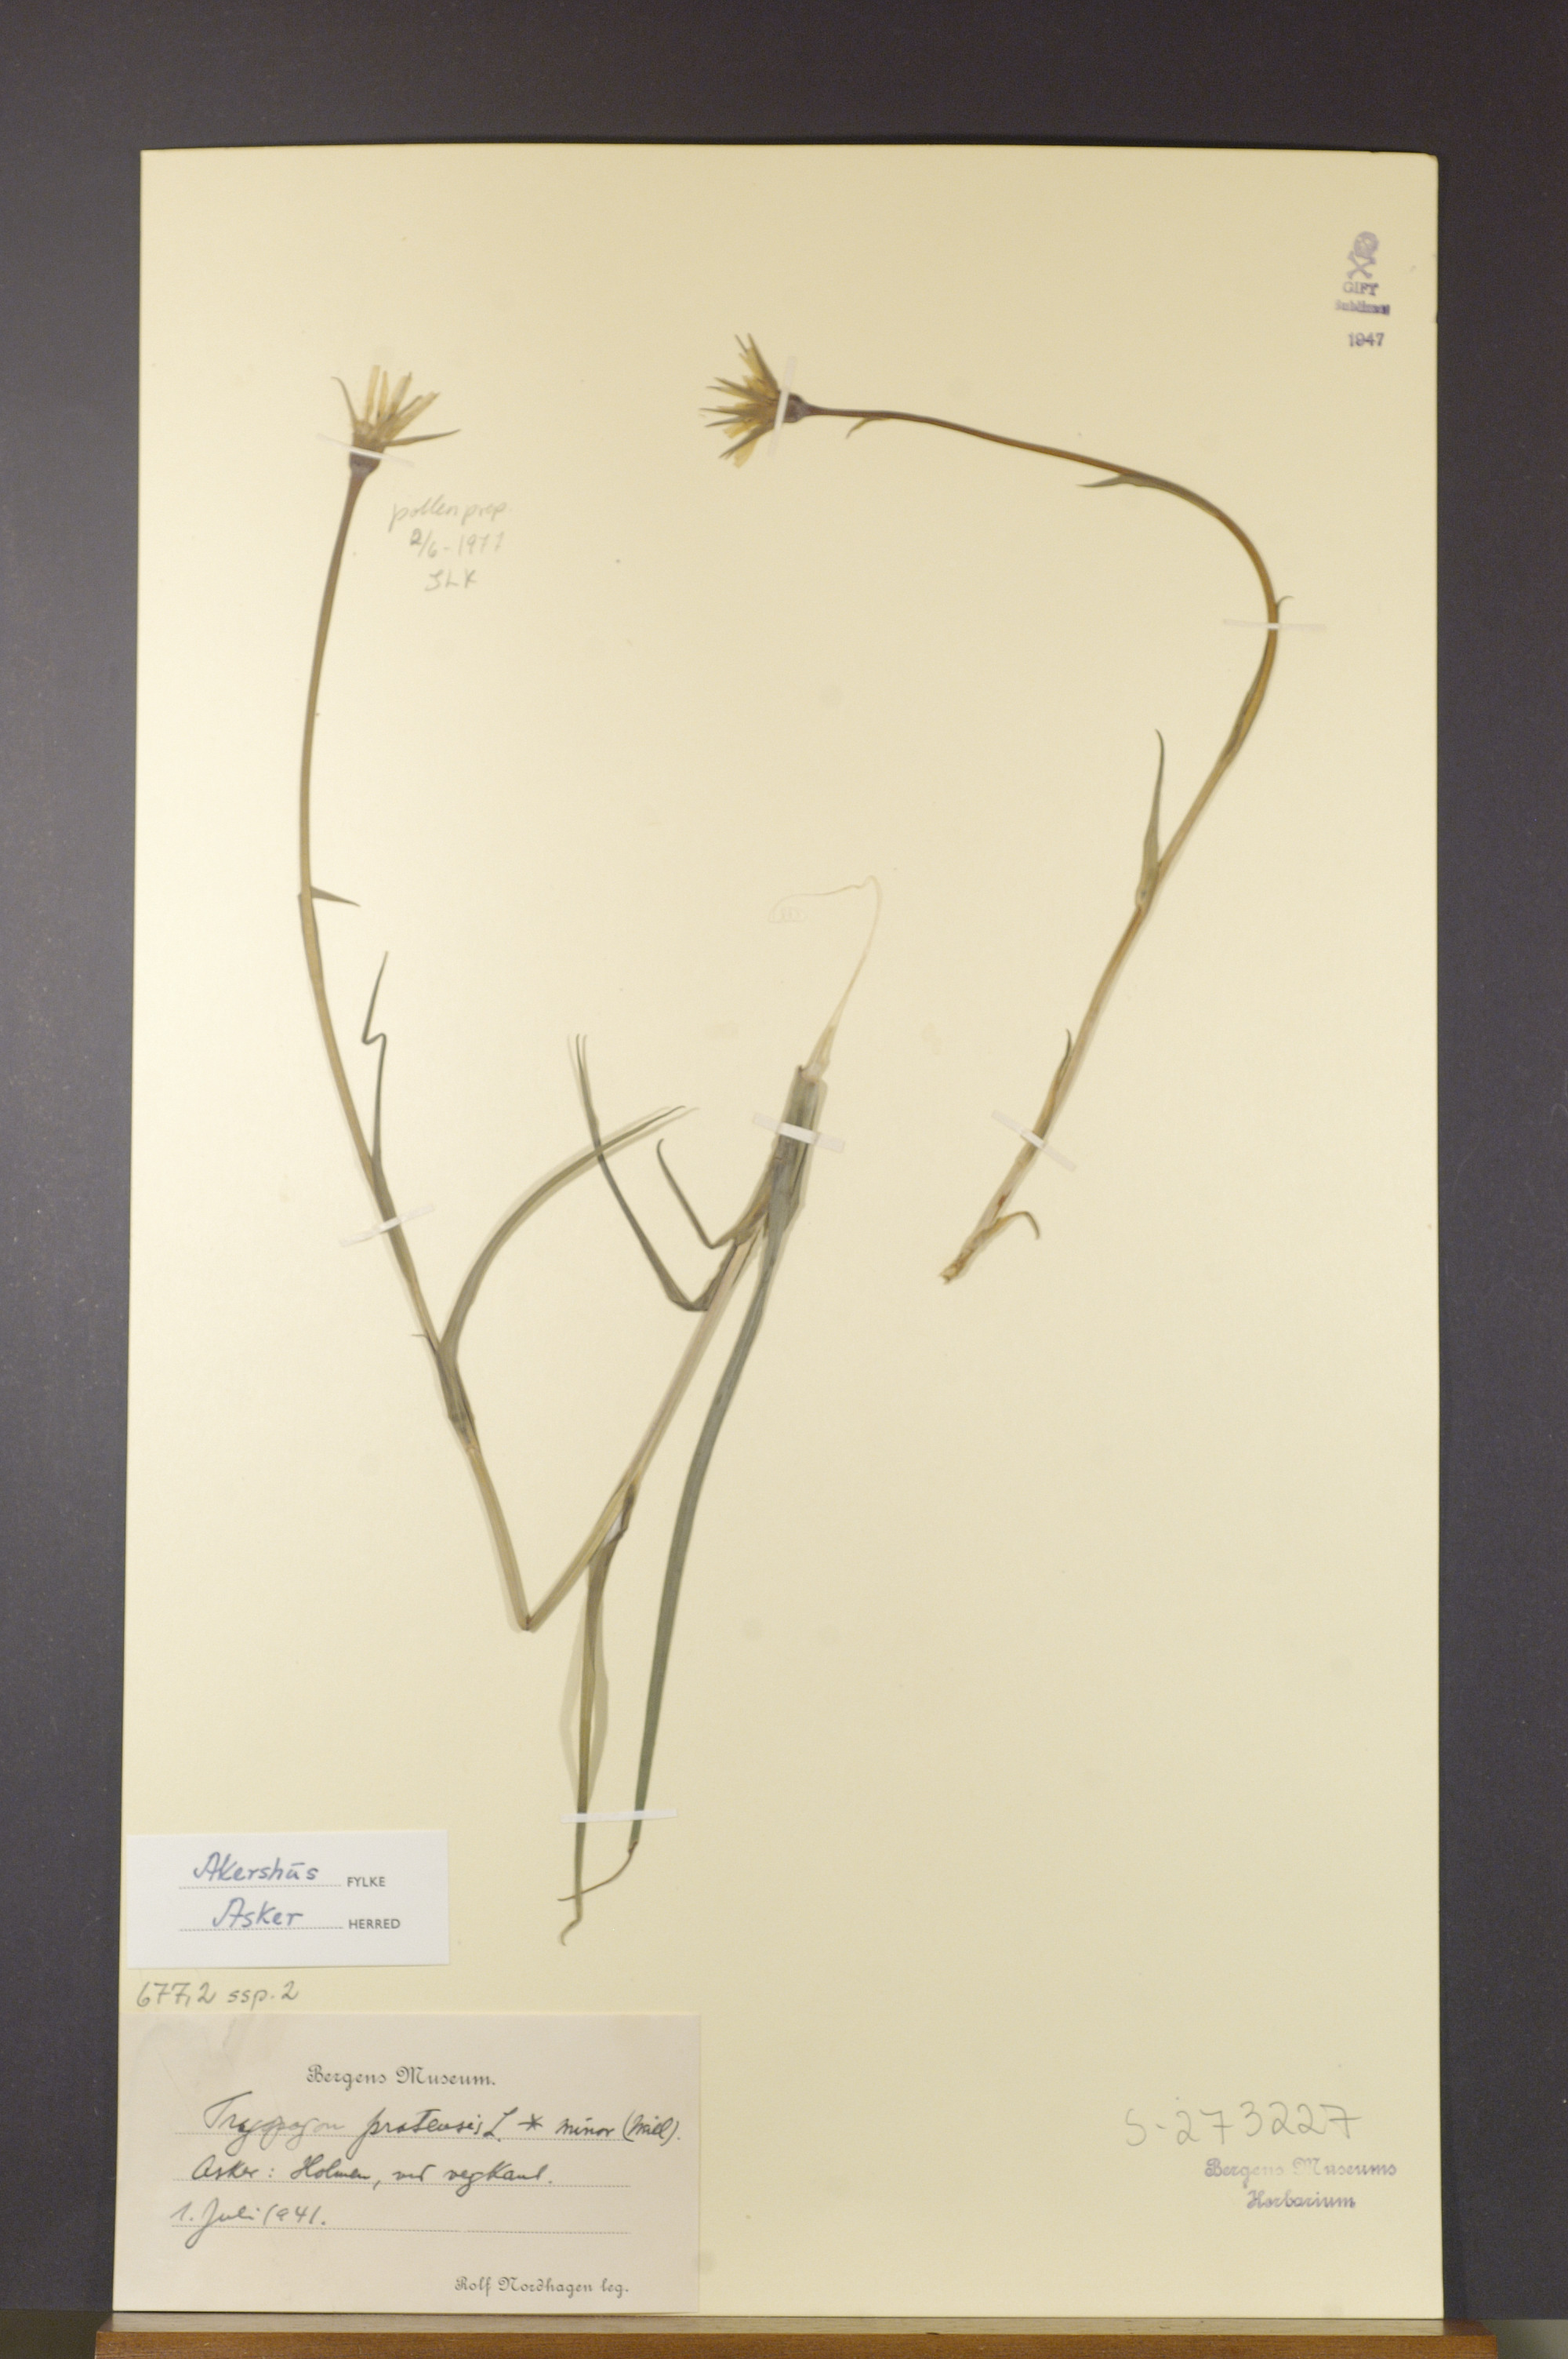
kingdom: Plantae
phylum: Tracheophyta
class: Magnoliopsida
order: Asterales
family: Asteraceae
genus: Tragopogon
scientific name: Tragopogon minor
